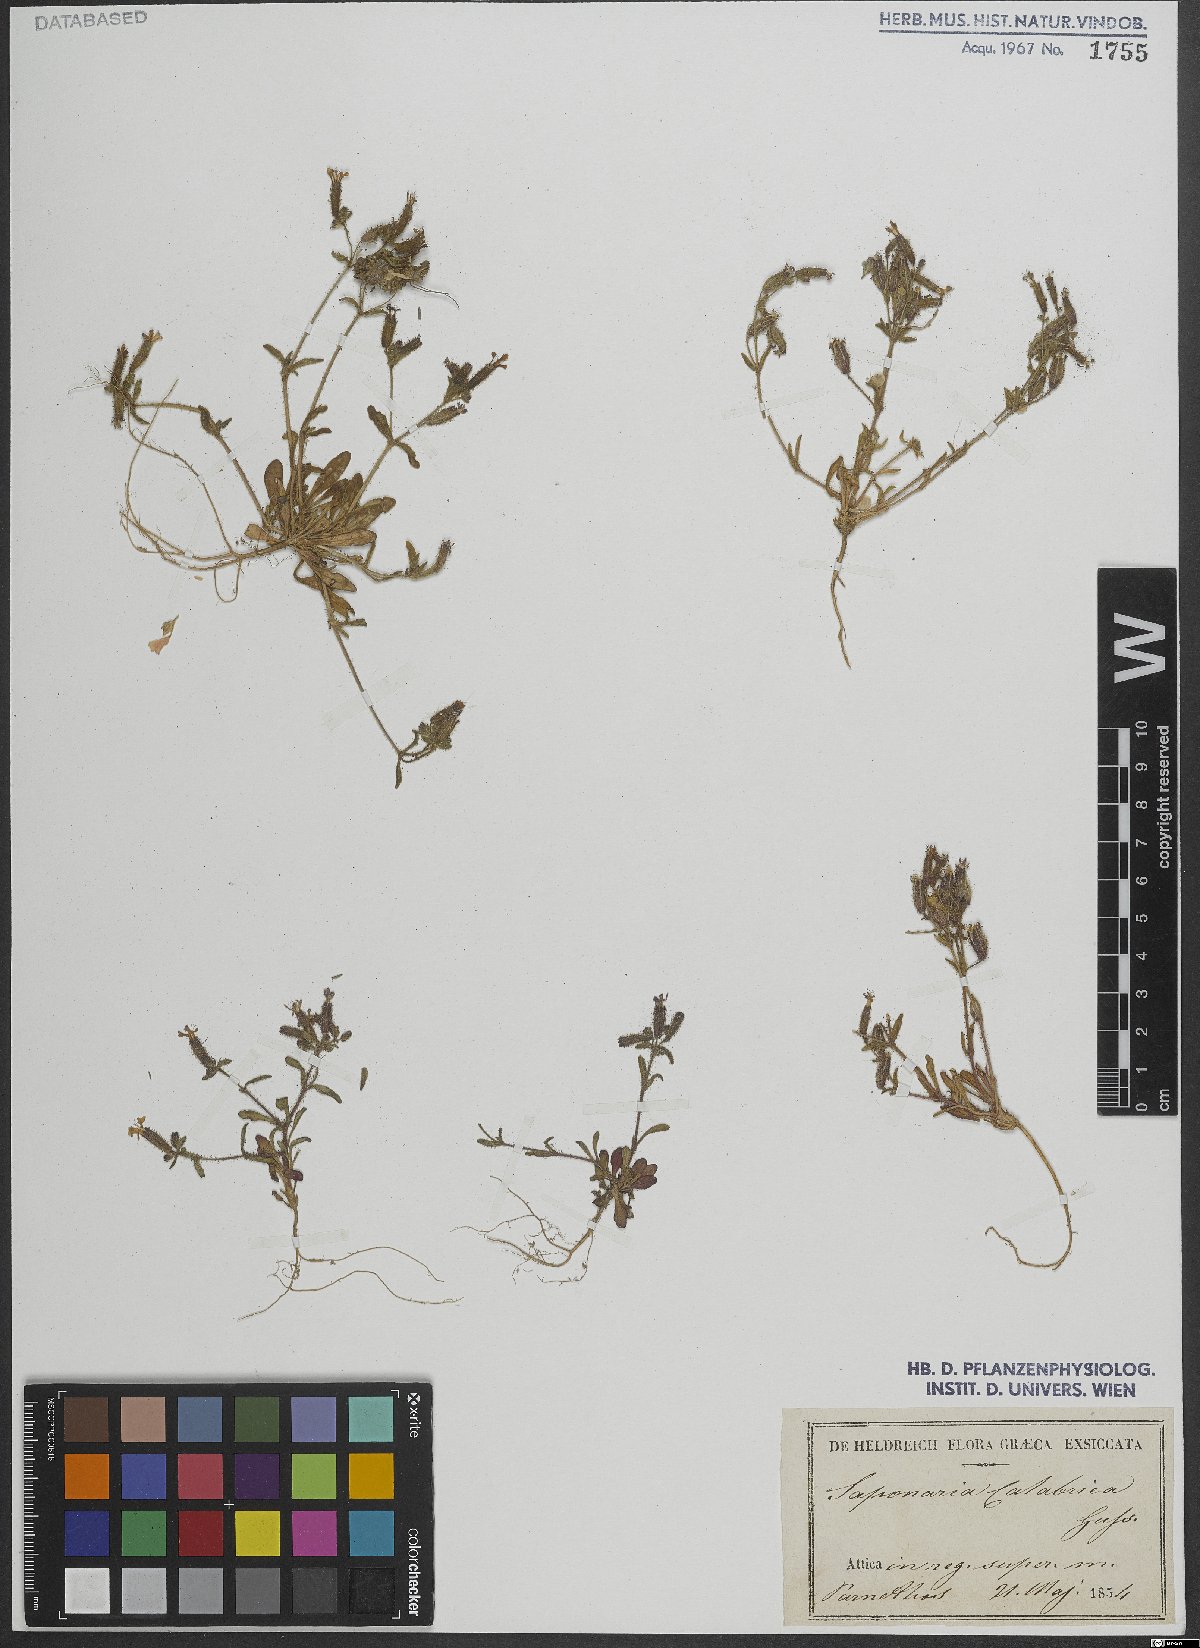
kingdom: Plantae
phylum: Tracheophyta
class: Magnoliopsida
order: Caryophyllales
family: Caryophyllaceae
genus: Saponaria
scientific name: Saponaria calabrica
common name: Adriatic soapwort
